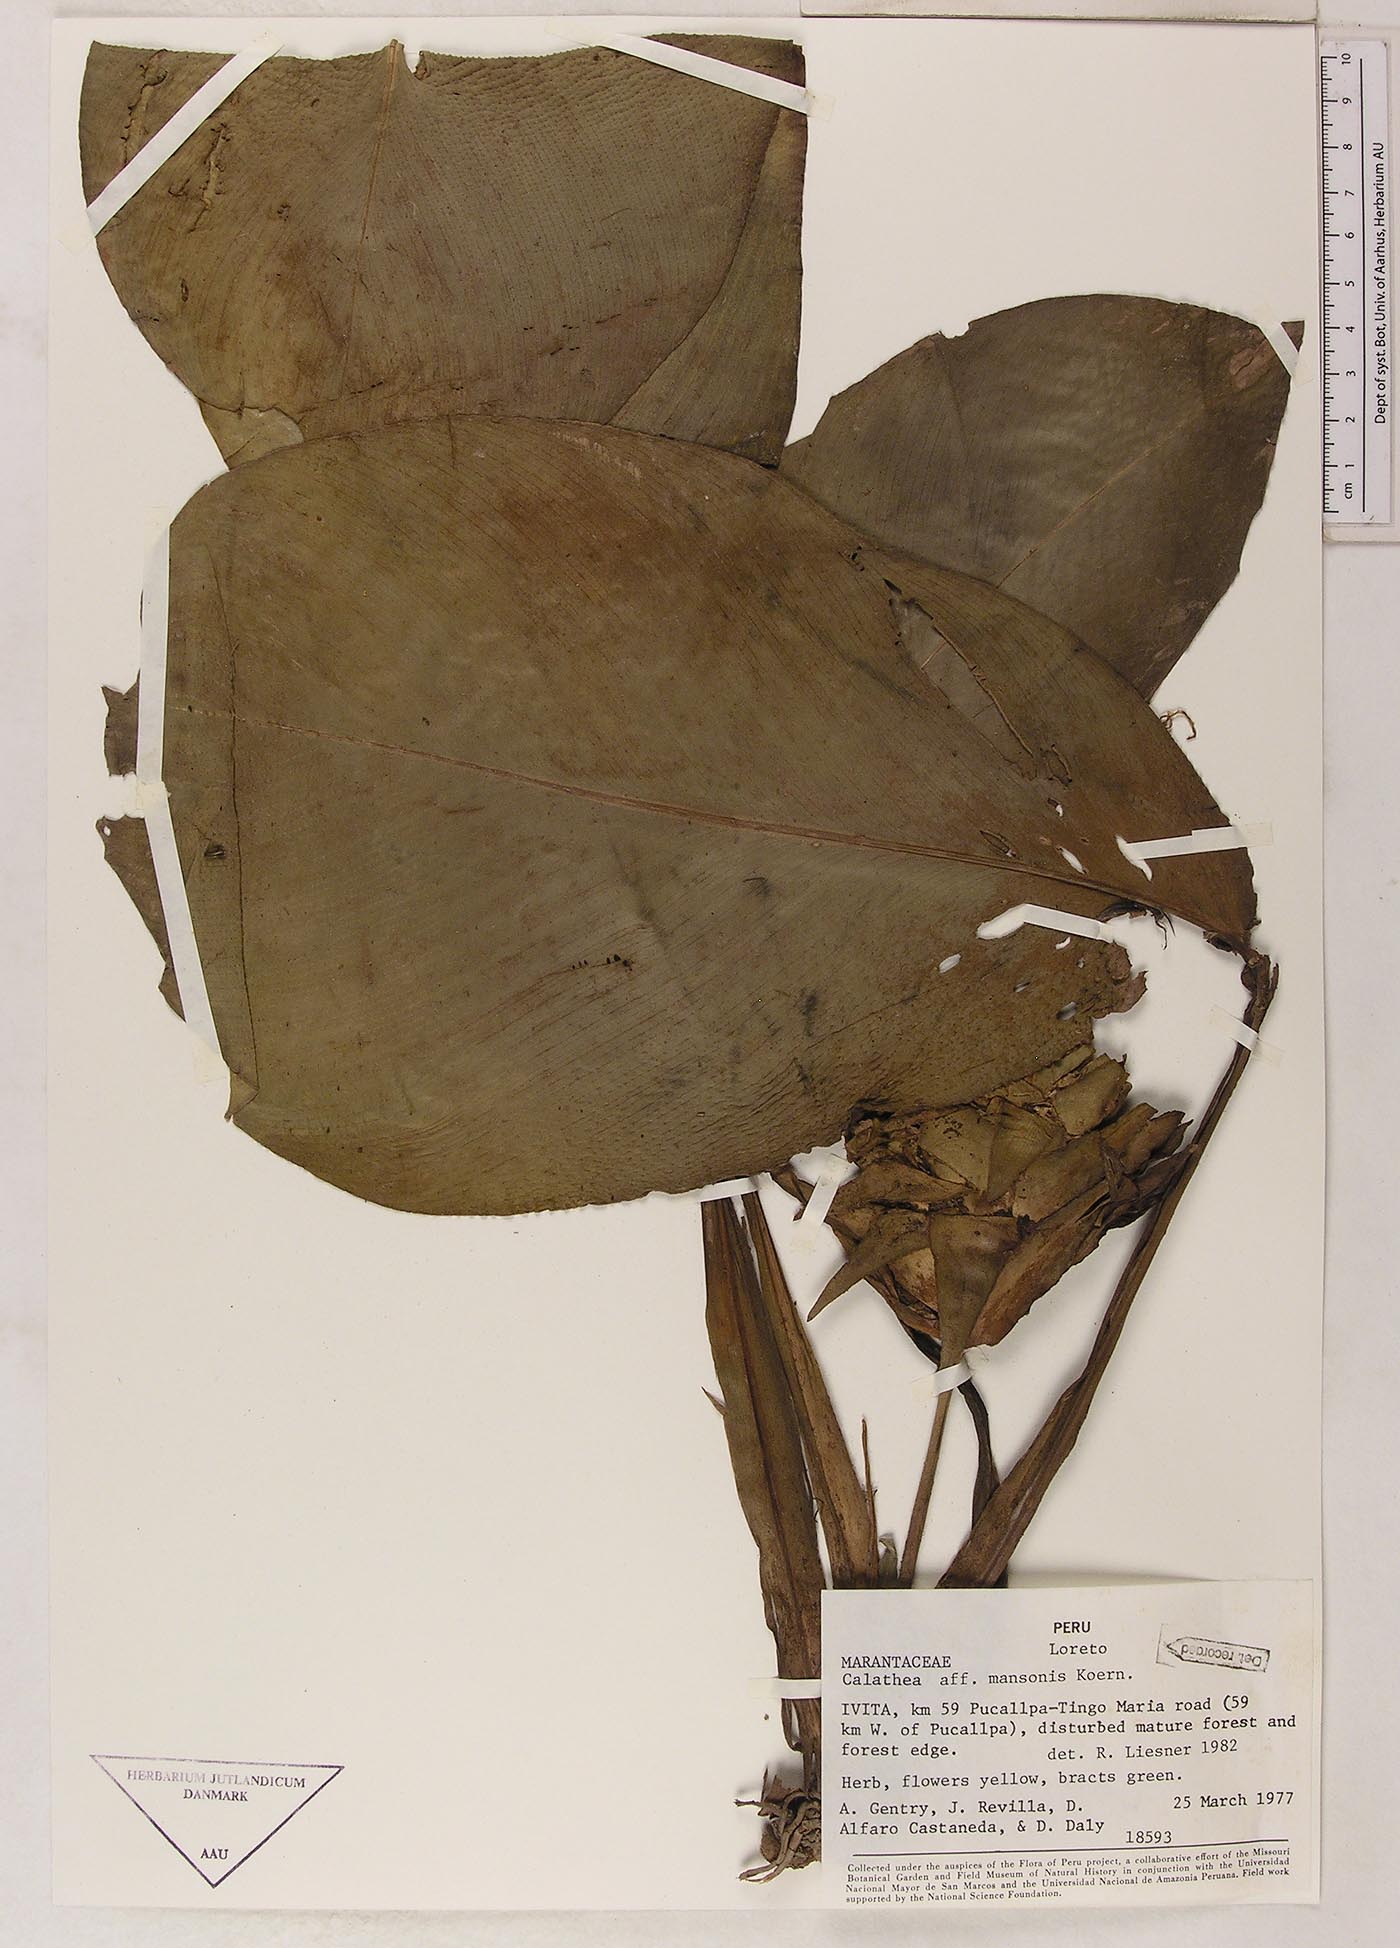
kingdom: Plantae
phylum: Tracheophyta
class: Liliopsida
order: Zingiberales
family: Marantaceae
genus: Goeppertia
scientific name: Goeppertia mansoi
